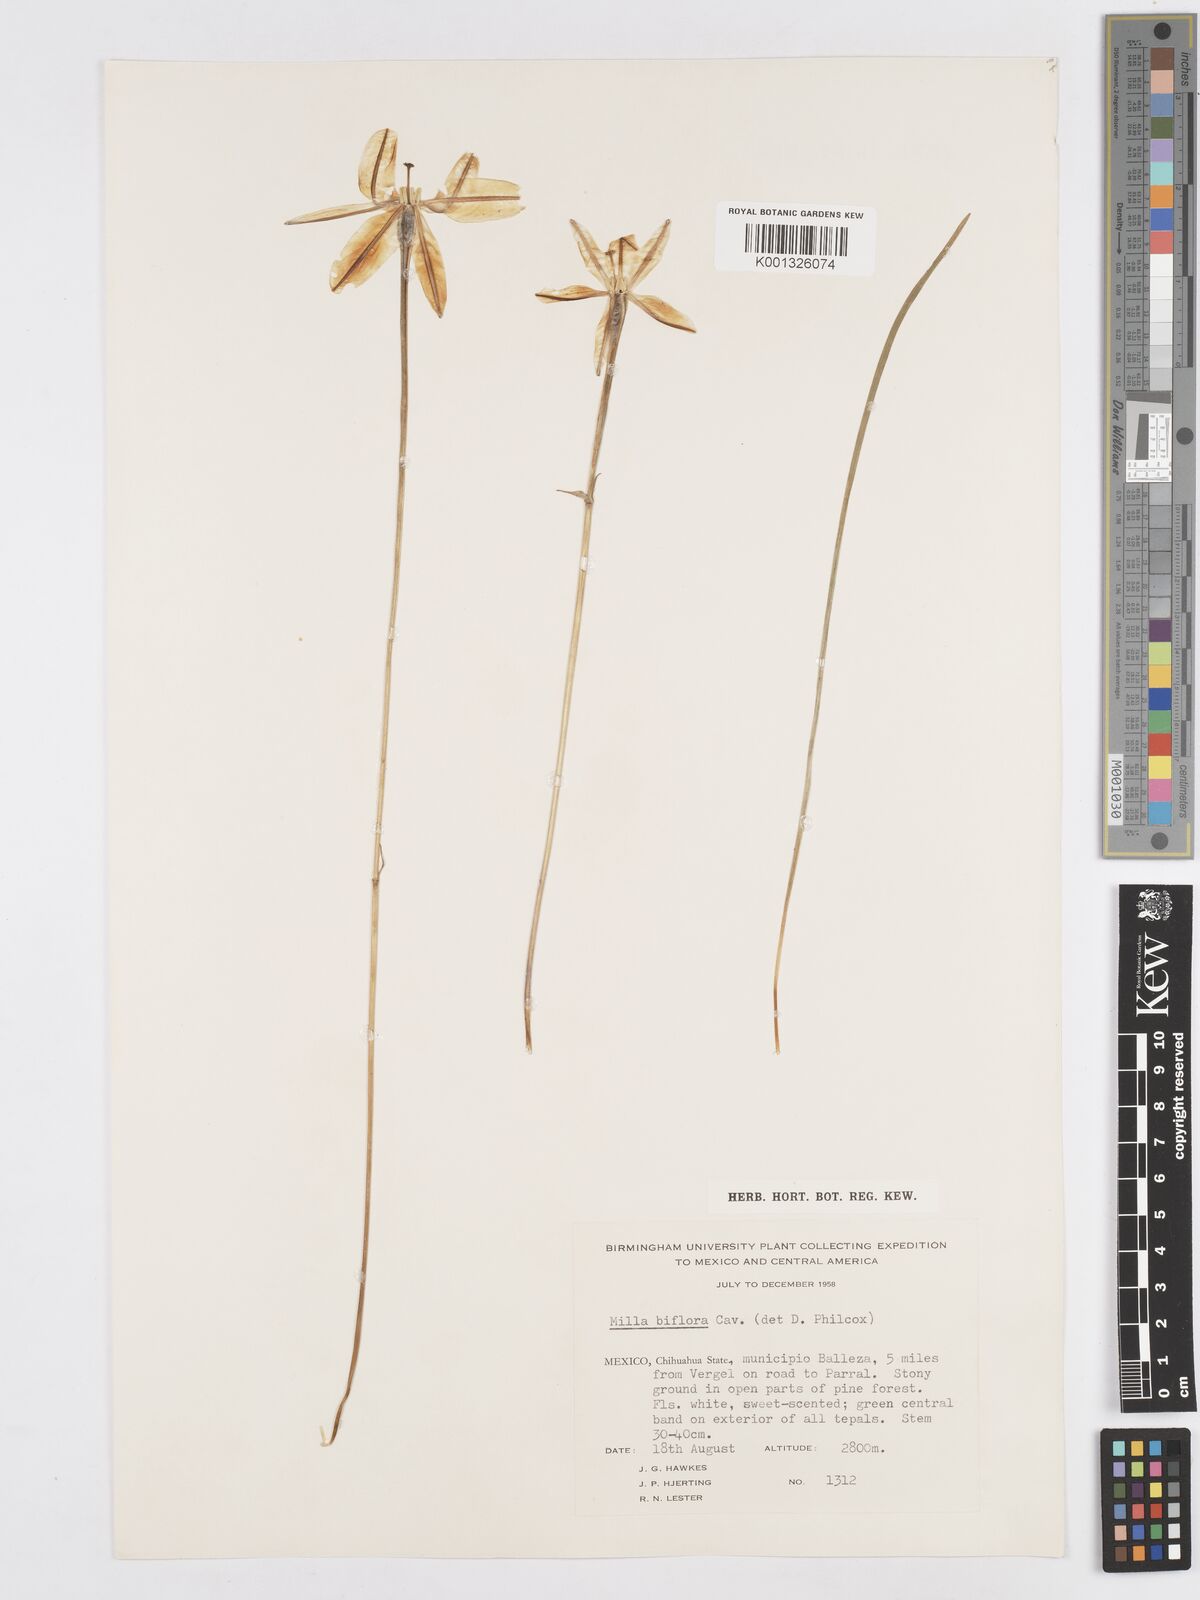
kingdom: Plantae
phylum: Tracheophyta
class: Liliopsida
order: Asparagales
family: Asparagaceae
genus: Milla
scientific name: Milla biflora
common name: Mexican-star
